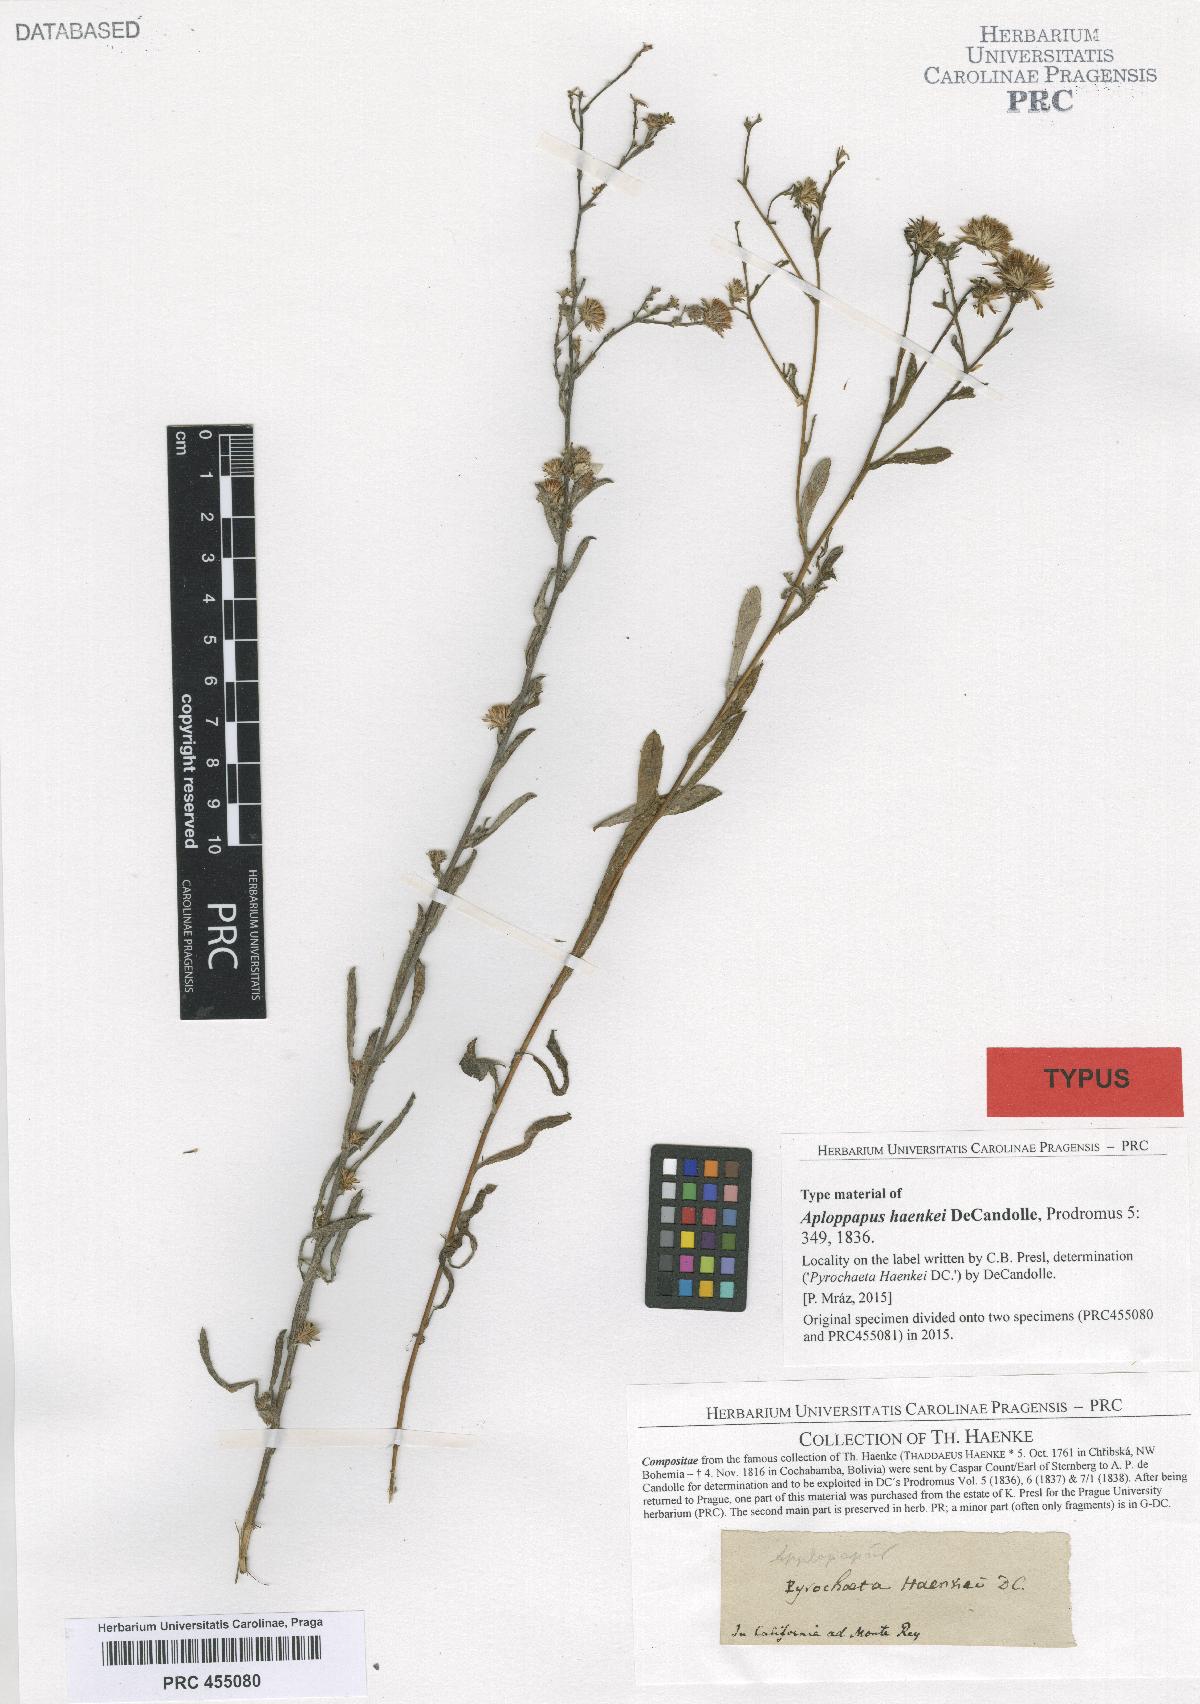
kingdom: Plantae
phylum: Tracheophyta
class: Magnoliopsida
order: Asterales
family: Asteraceae
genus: Corethrogyne
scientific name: Corethrogyne filaginifolia
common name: Sand-aster
